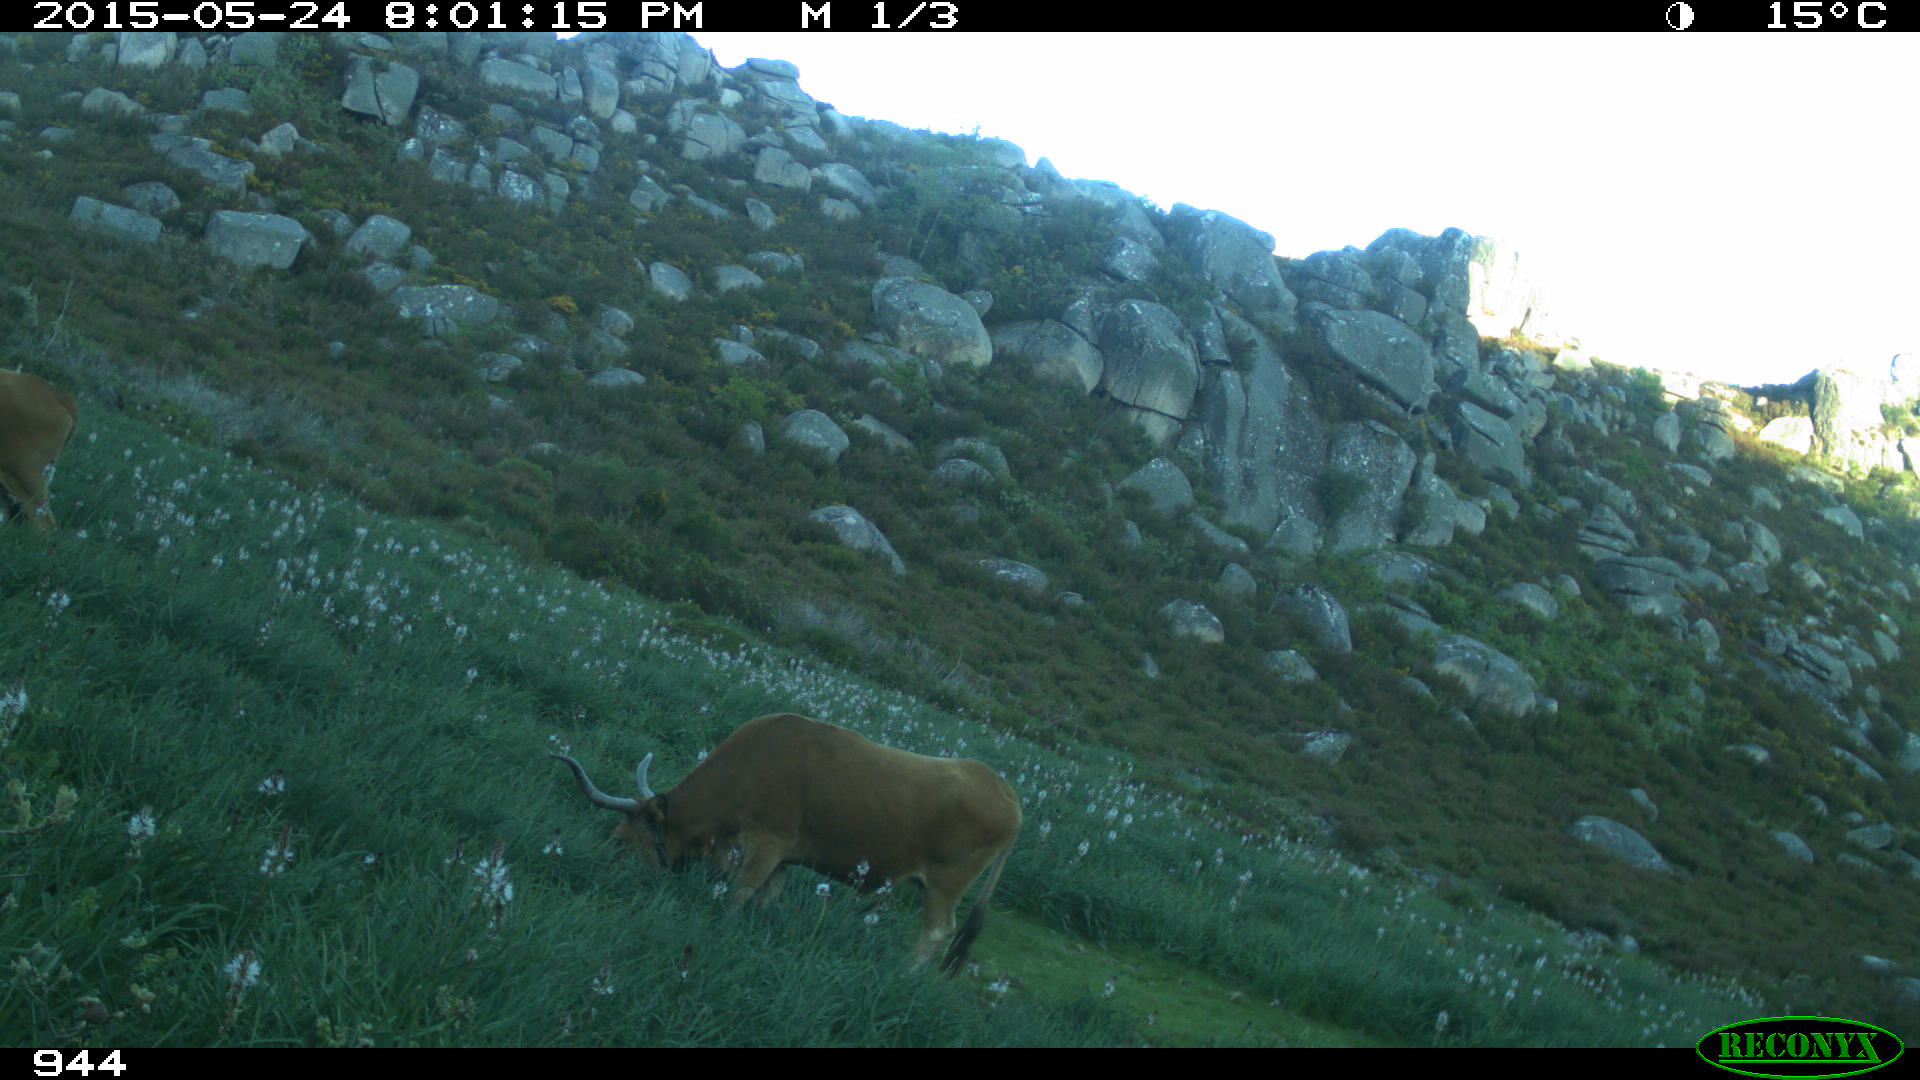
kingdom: Animalia
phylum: Chordata
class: Mammalia
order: Artiodactyla
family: Bovidae
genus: Bos
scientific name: Bos taurus
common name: Domesticated cattle
